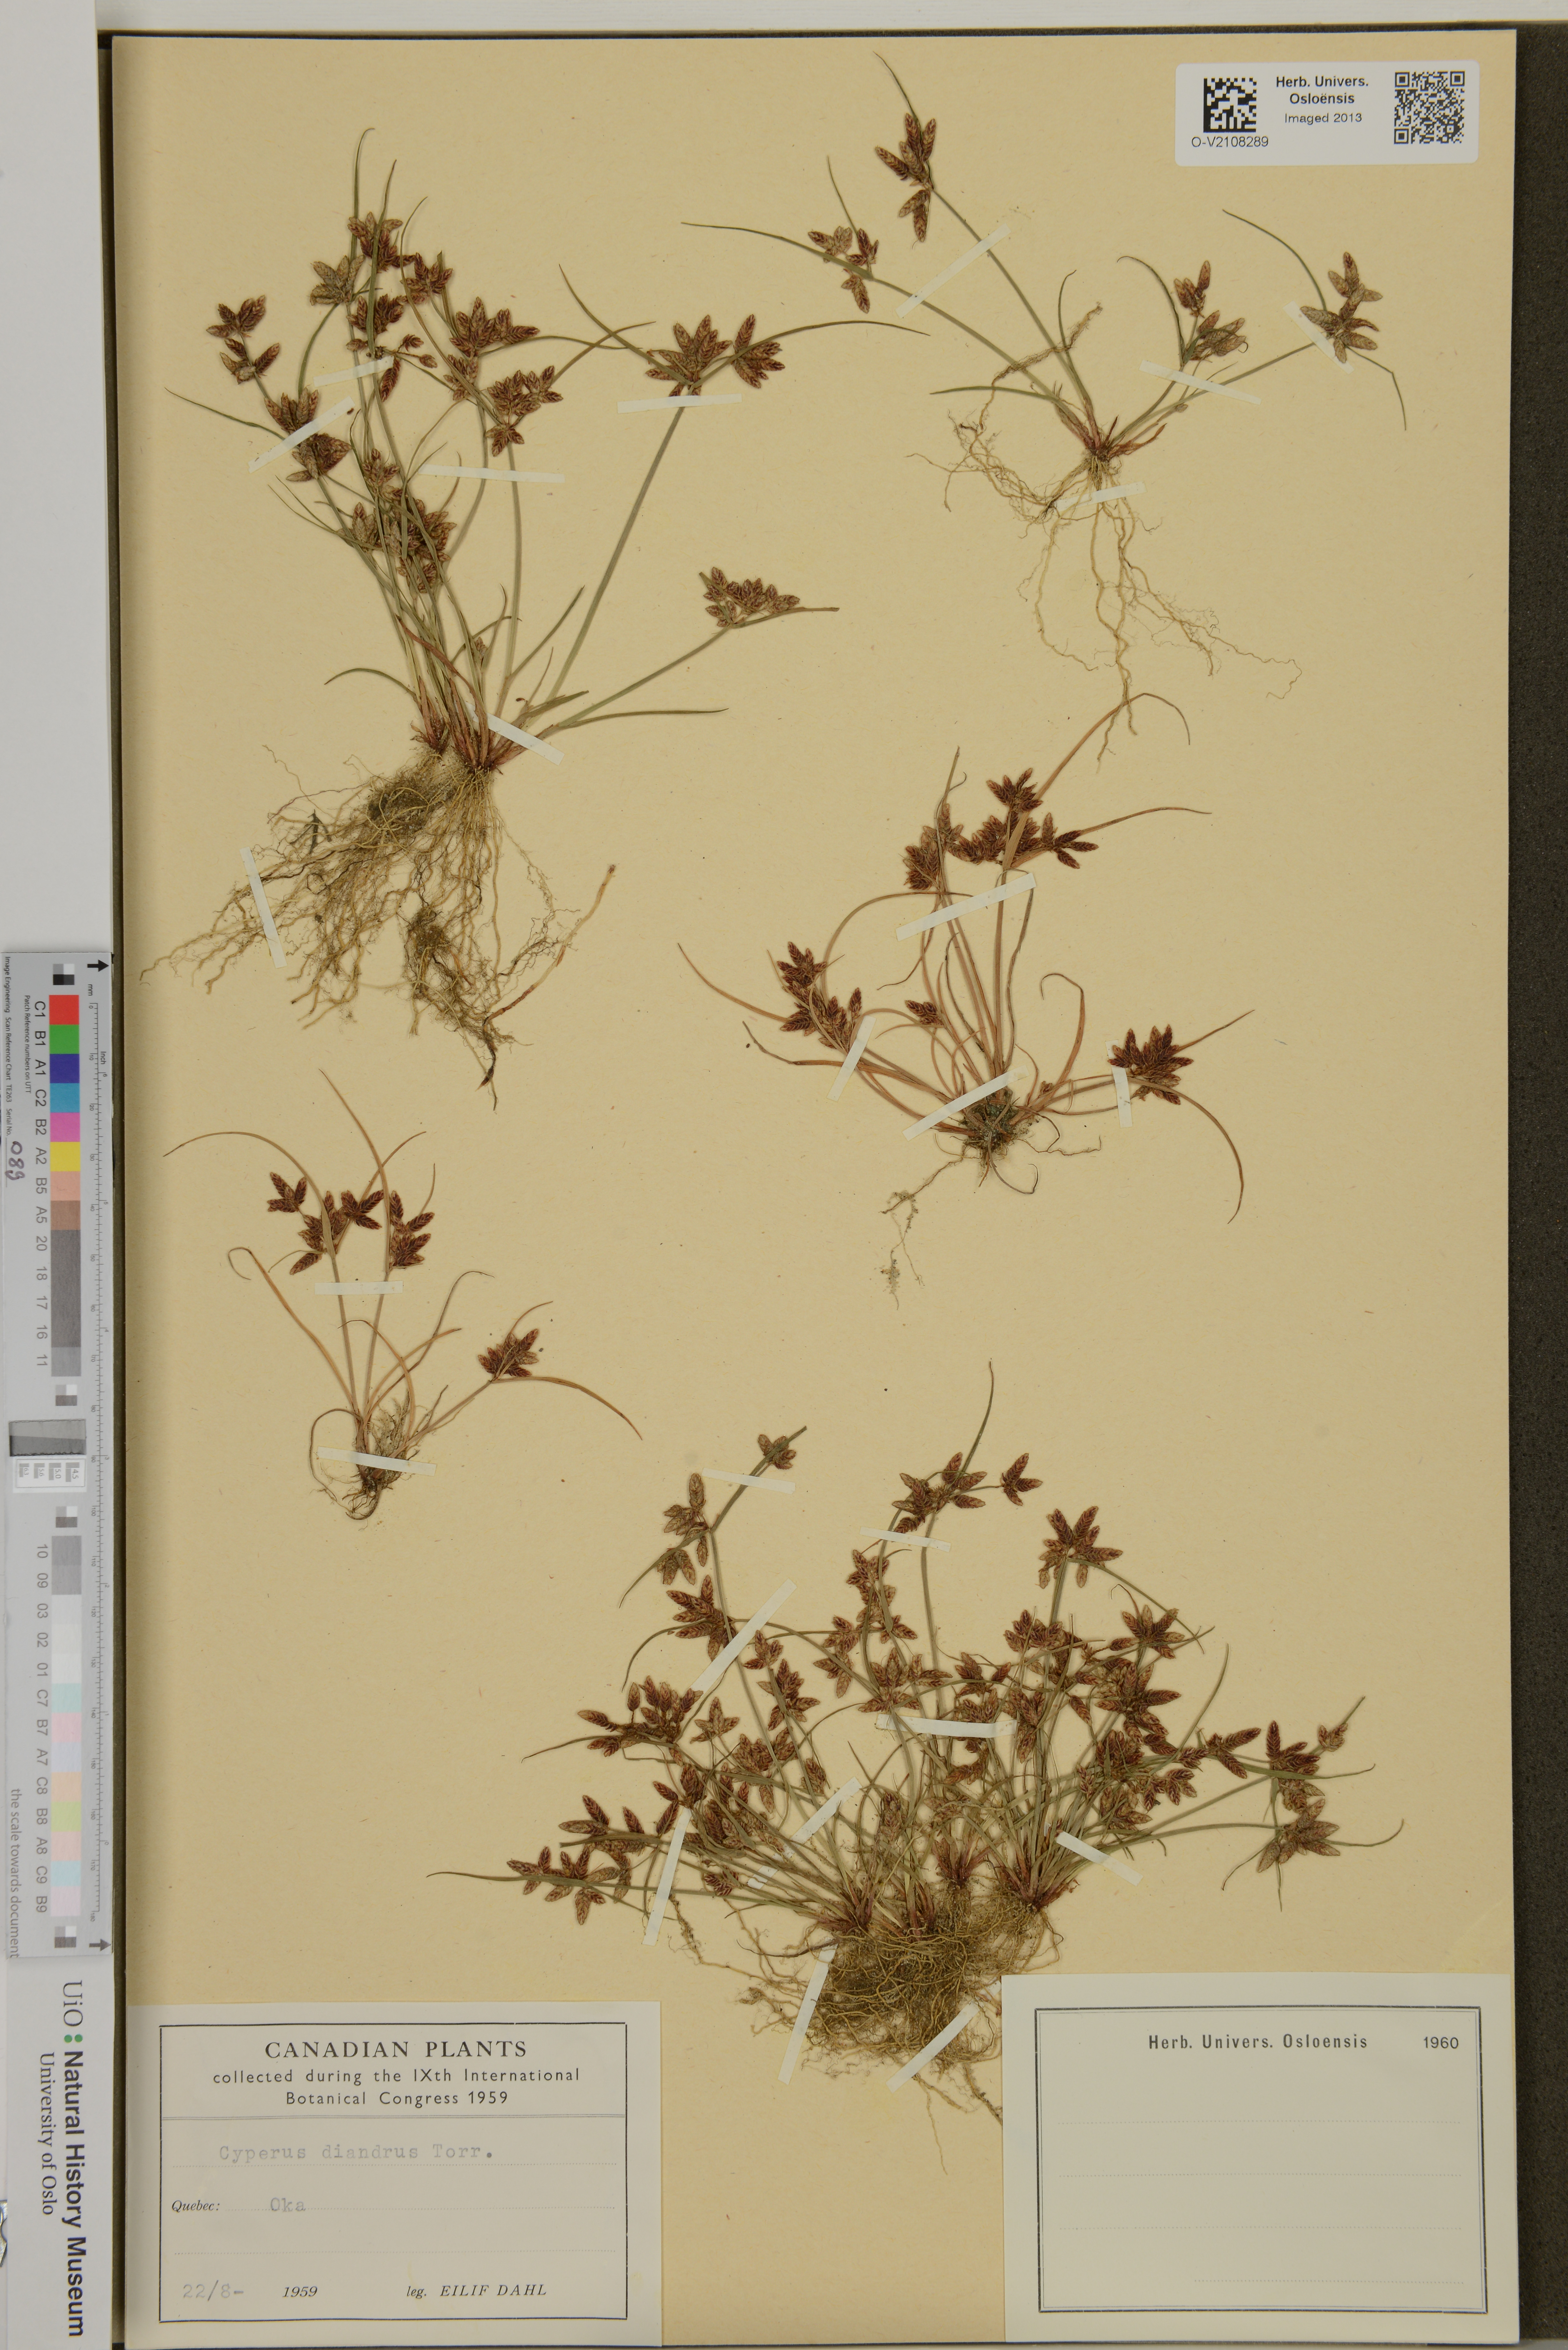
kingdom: Plantae
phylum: Tracheophyta
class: Liliopsida
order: Poales
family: Cyperaceae
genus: Cyperus
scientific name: Cyperus diandrus
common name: Low cyperus
